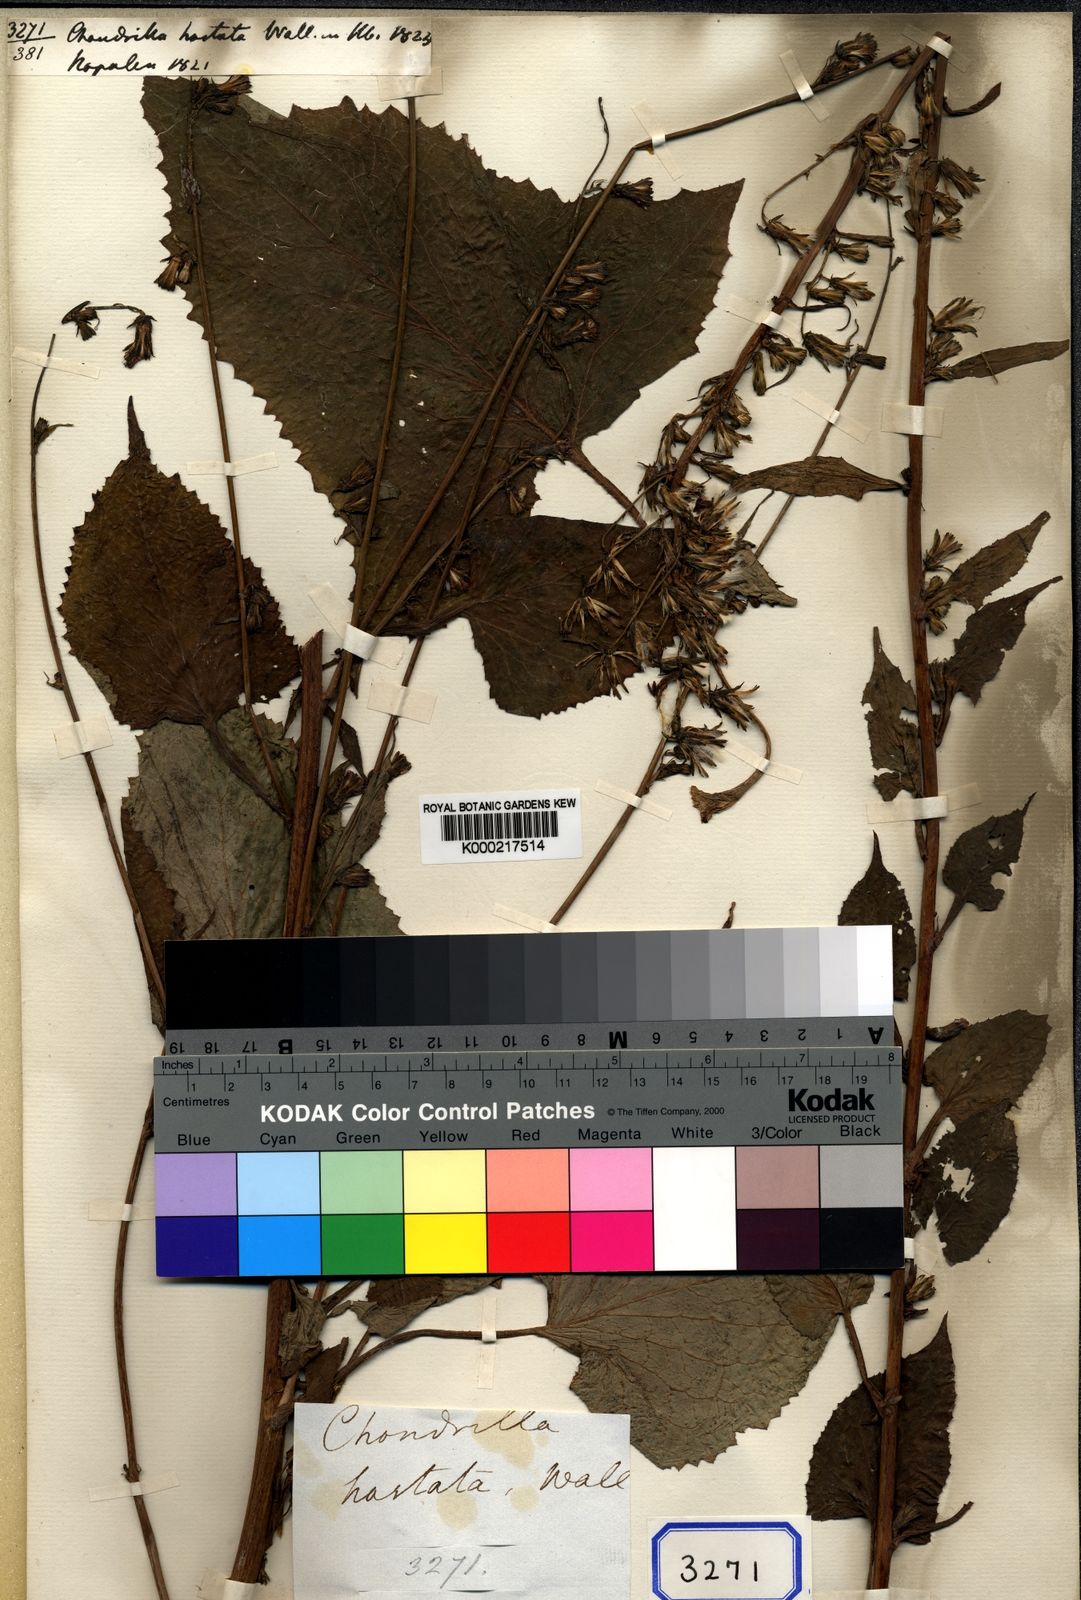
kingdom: Plantae
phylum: Tracheophyta
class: Magnoliopsida
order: Asterales
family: Asteraceae
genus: Melanoseris
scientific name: Melanoseris cyanea
